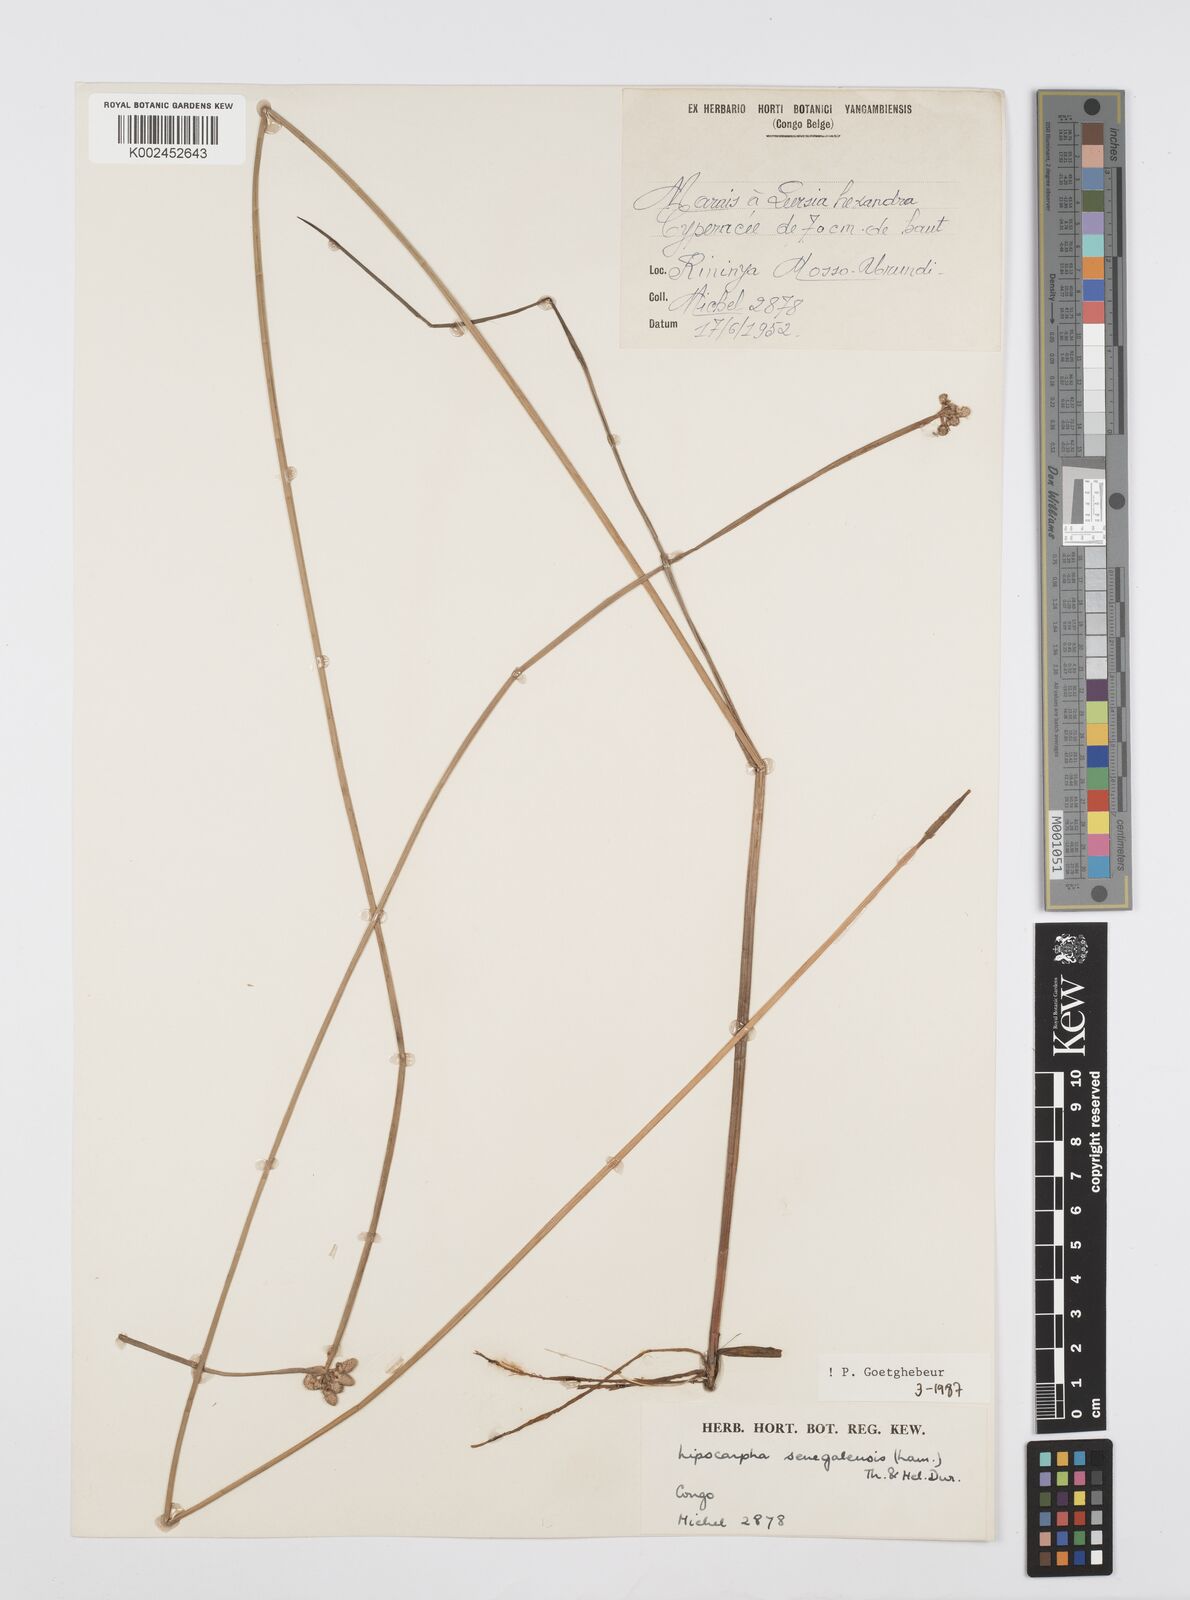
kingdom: Plantae
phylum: Tracheophyta
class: Liliopsida
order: Poales
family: Cyperaceae
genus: Cyperus
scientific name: Cyperus albescens
